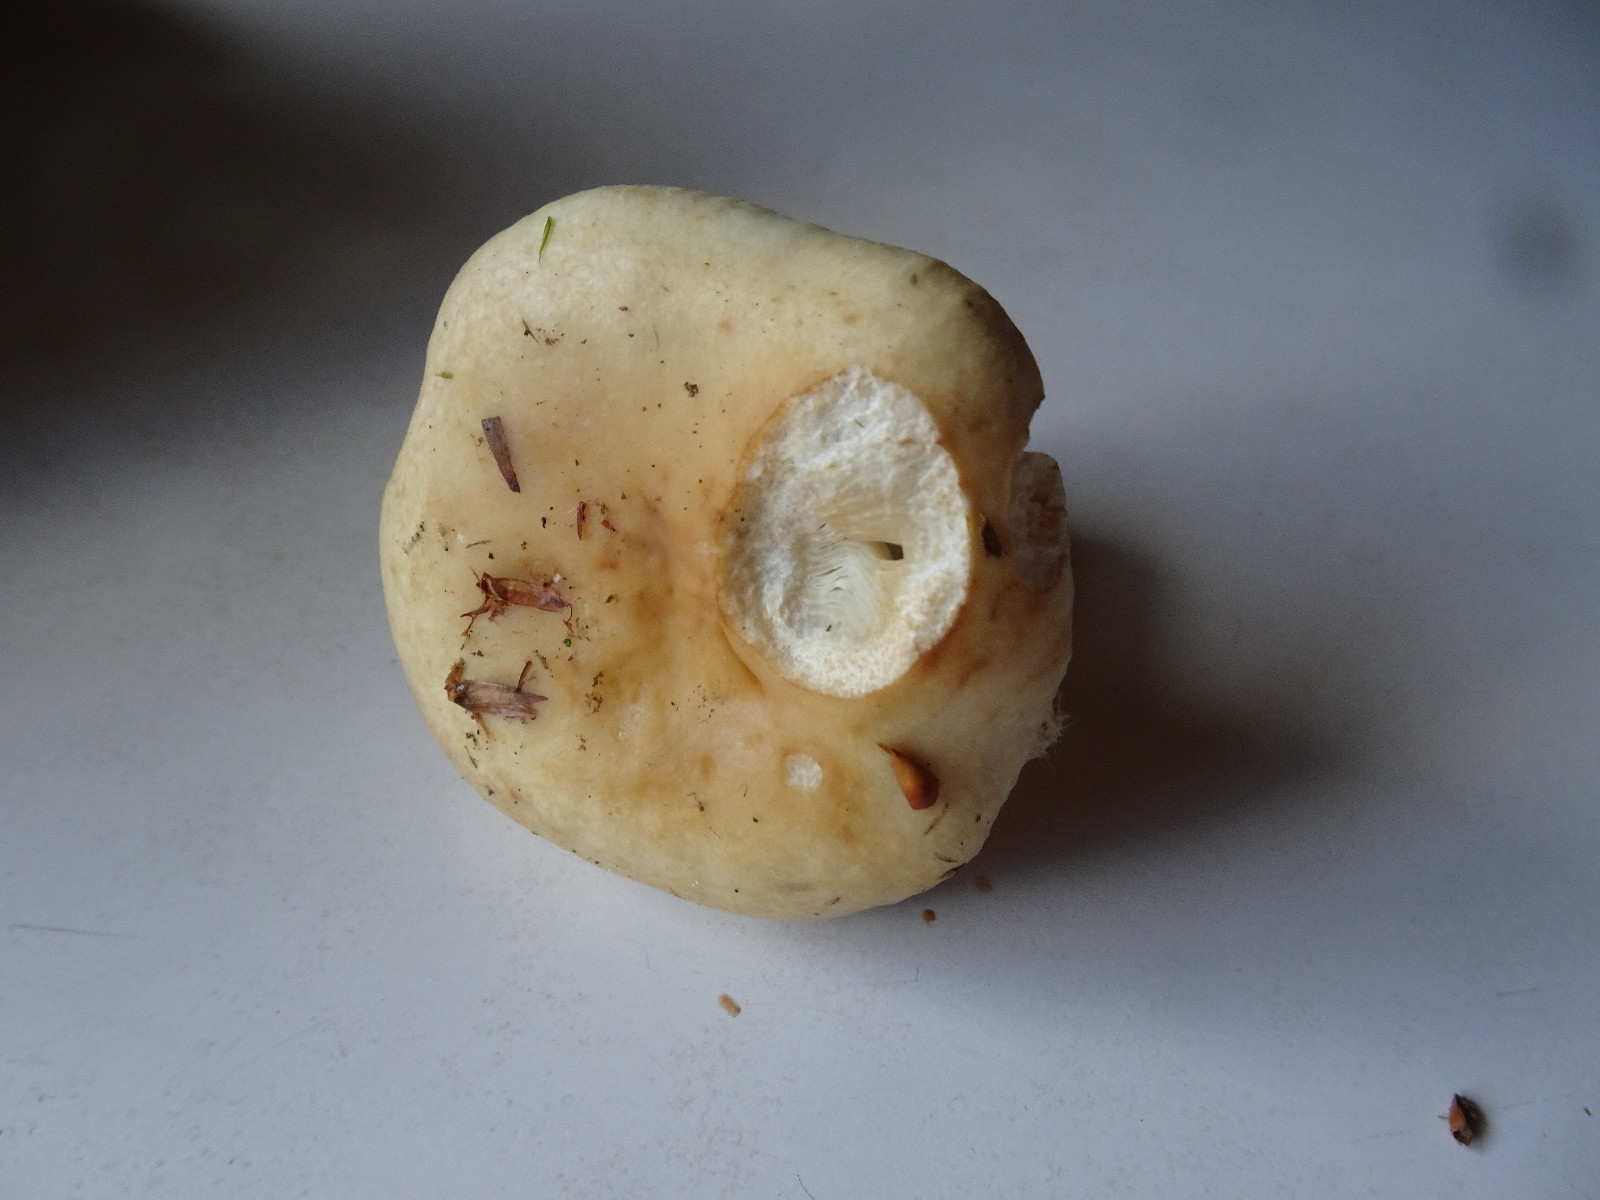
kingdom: Fungi
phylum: Basidiomycota
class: Agaricomycetes
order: Russulales
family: Russulaceae
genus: Russula
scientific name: Russula fellea
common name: galde-skørhat
